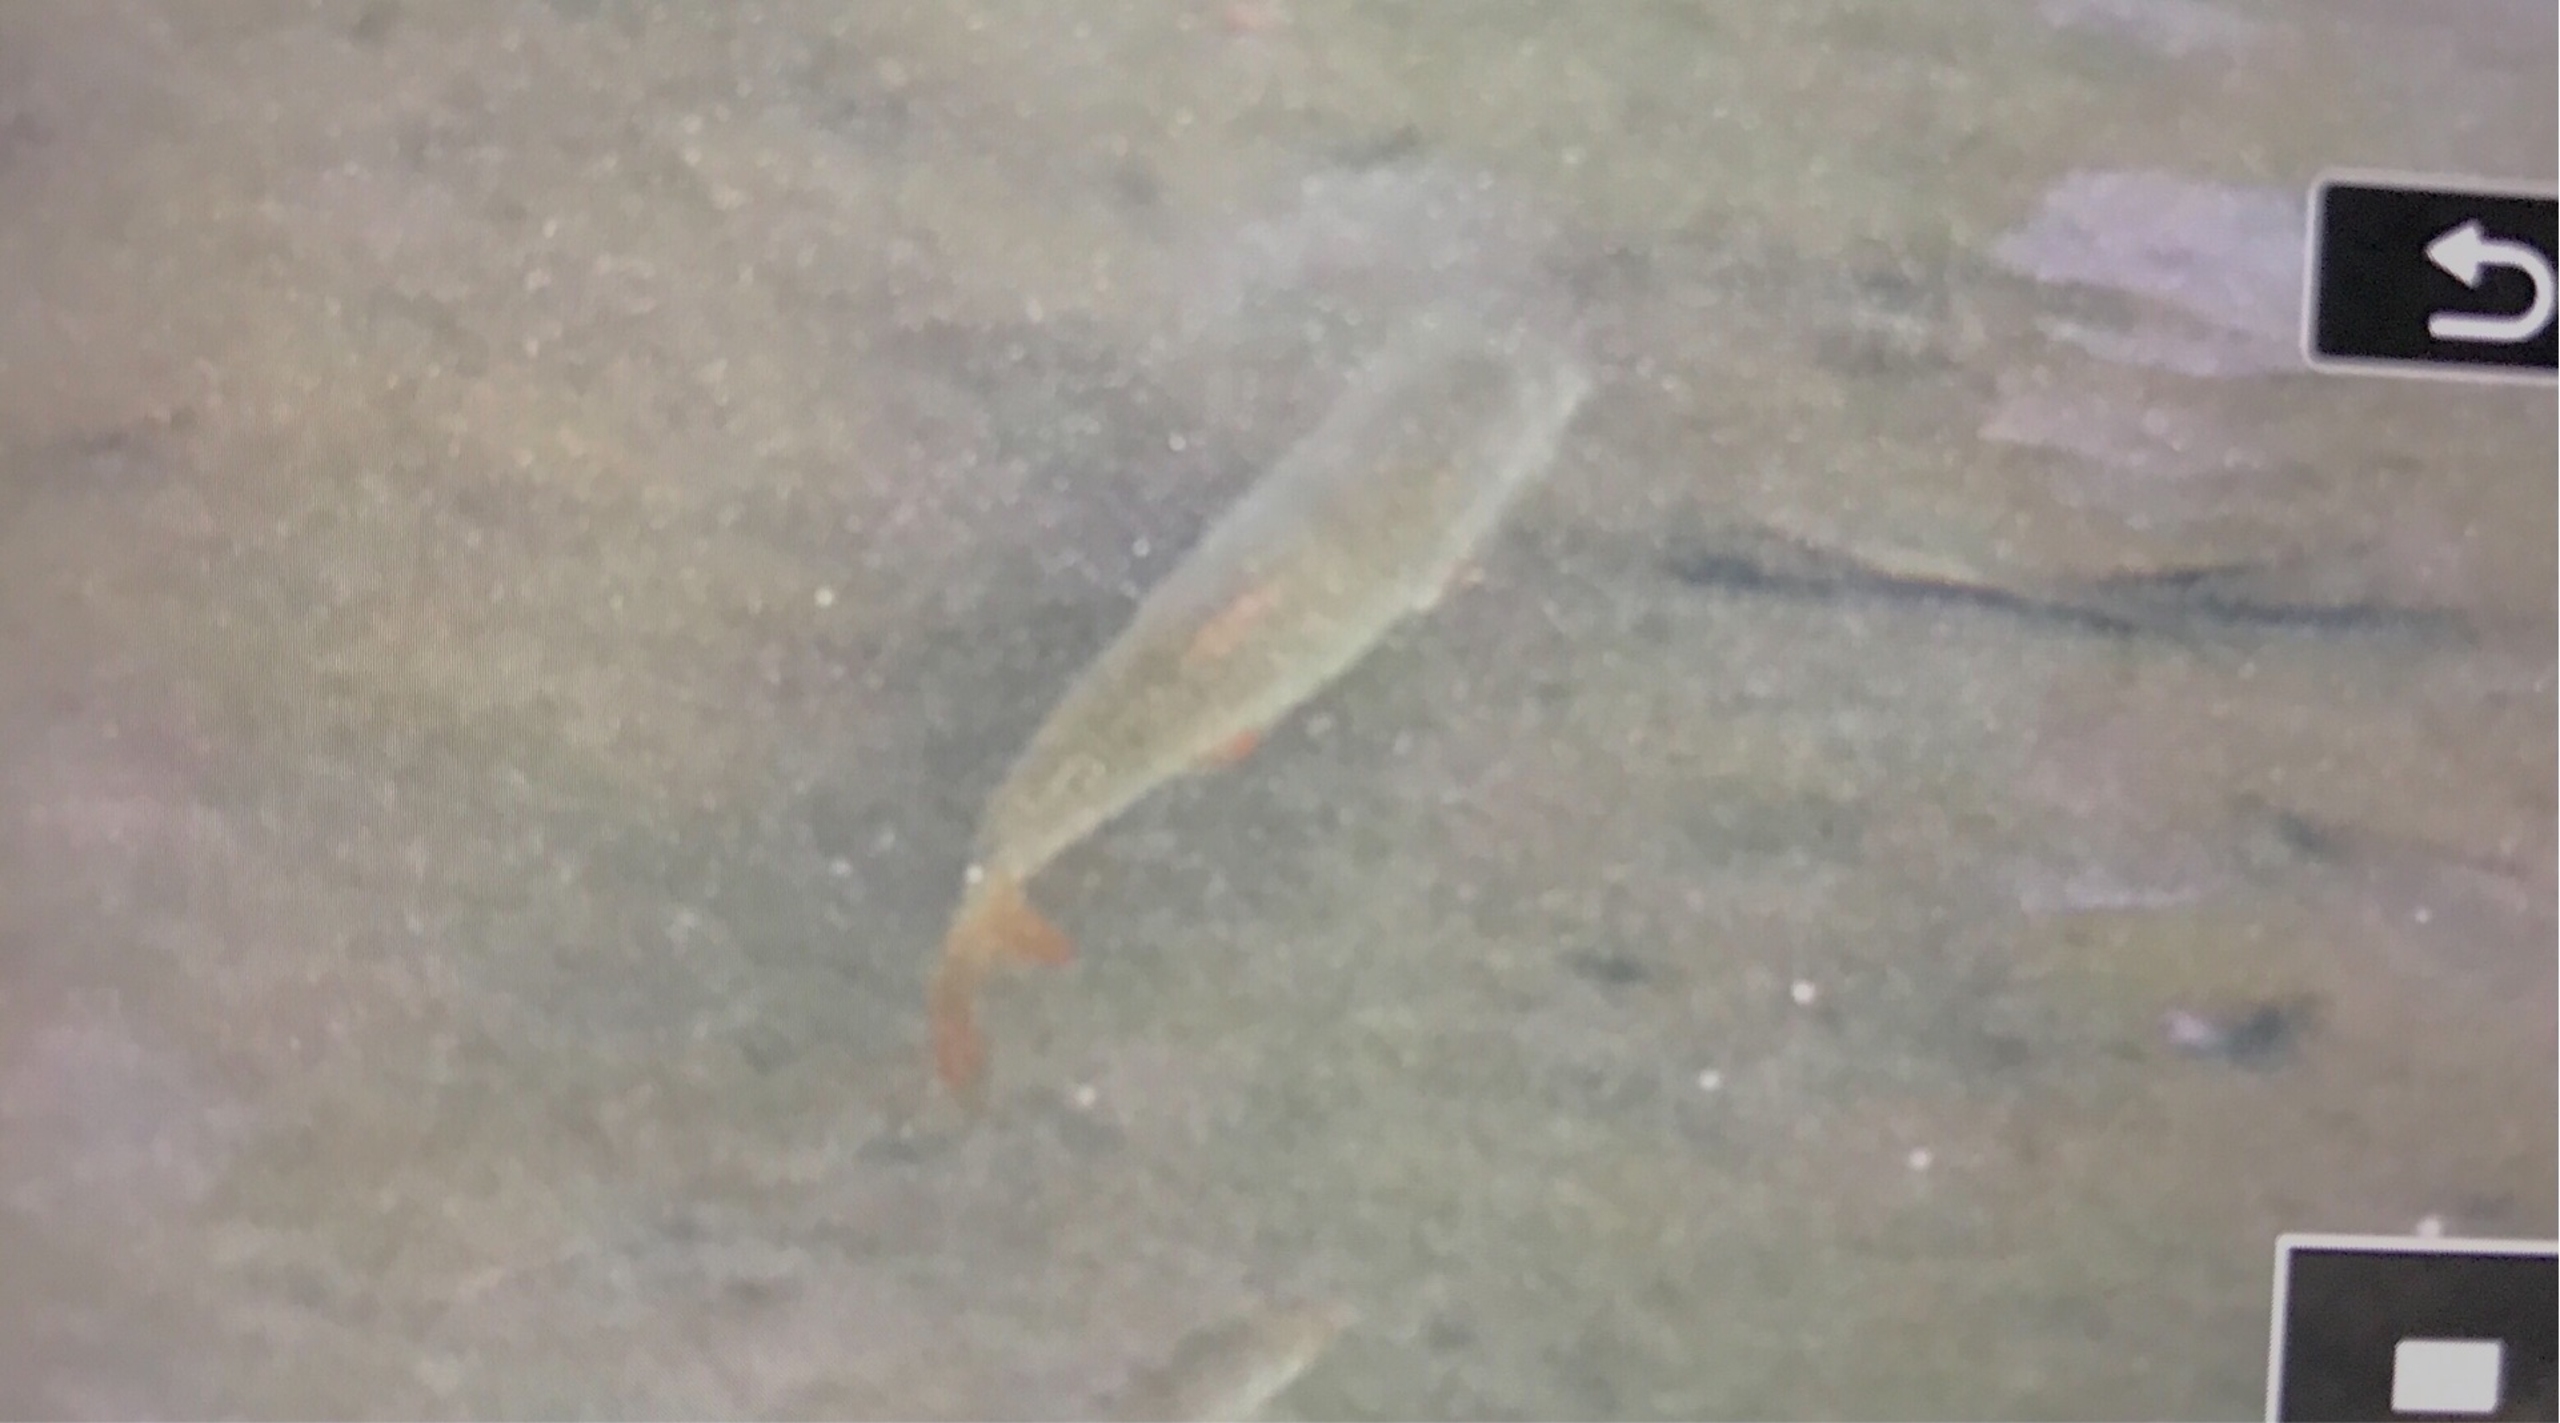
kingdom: Animalia
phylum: Chordata
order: Cypriniformes
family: Cyprinidae
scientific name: Cyprinidae
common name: Karpefamilien
